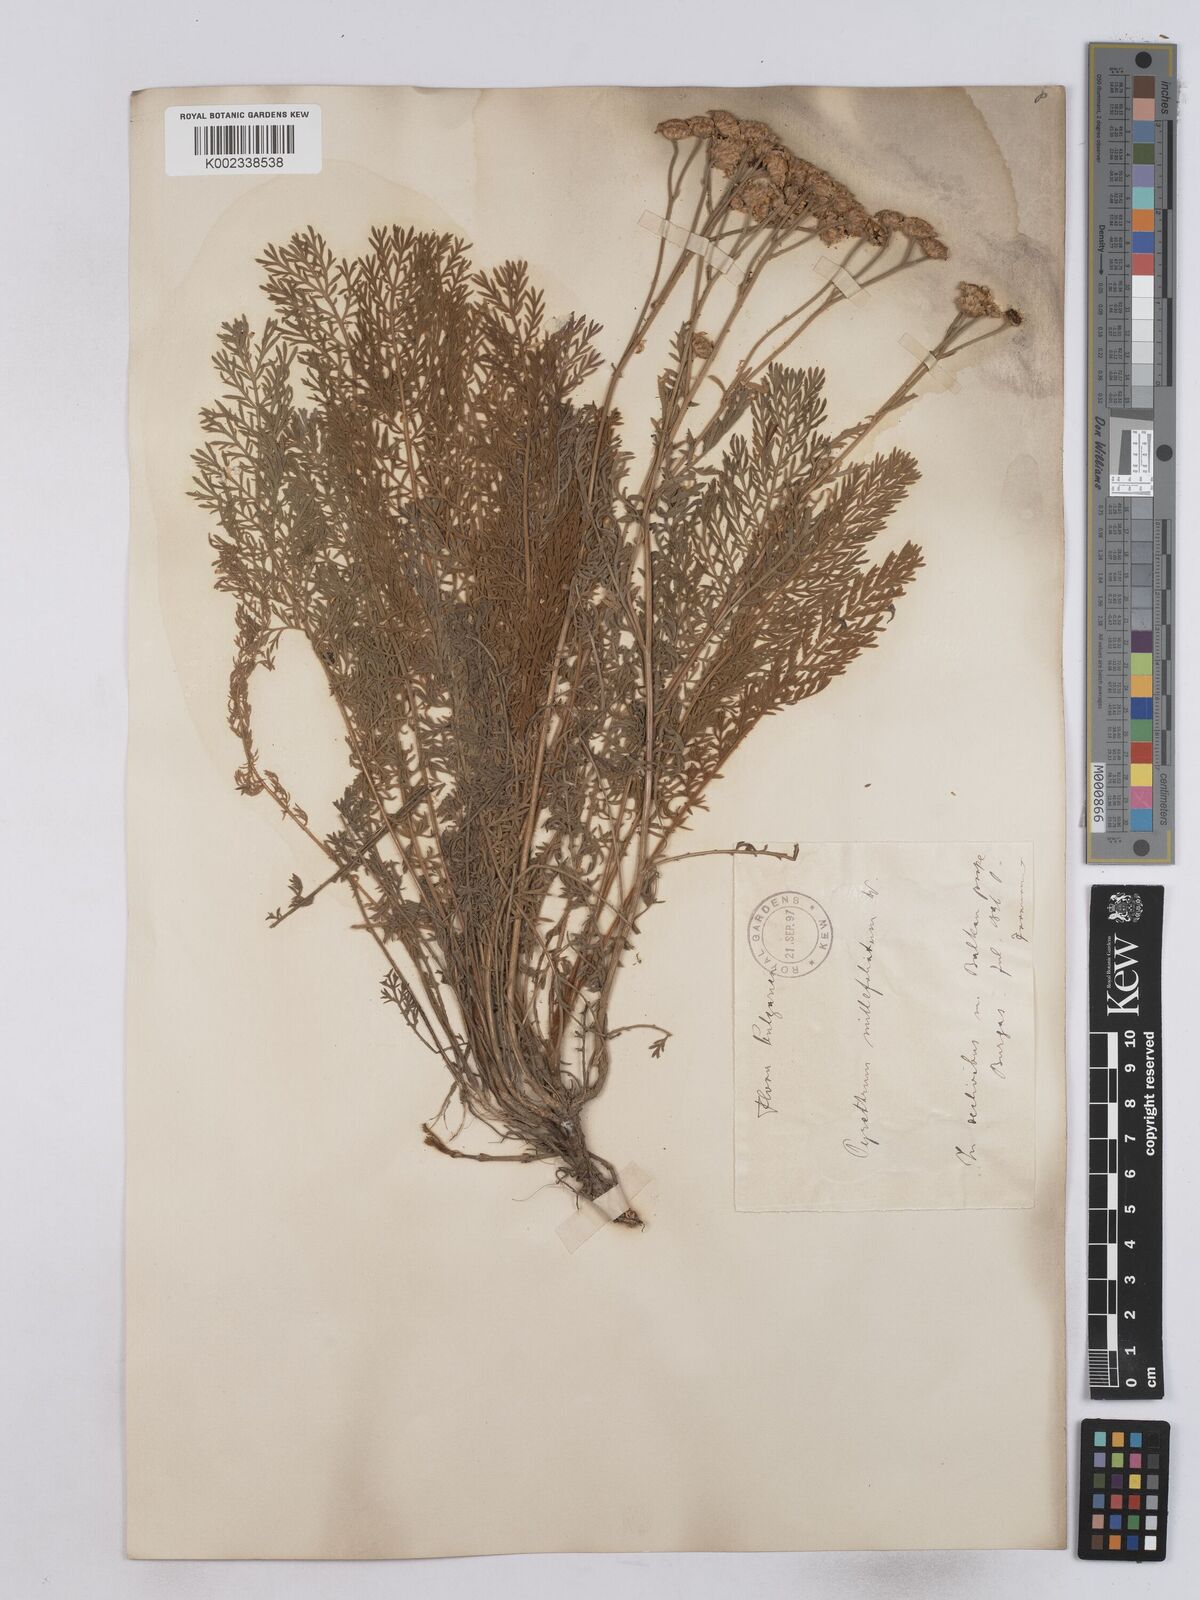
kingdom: Plantae
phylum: Tracheophyta
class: Magnoliopsida
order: Asterales
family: Asteraceae
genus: Tanacetum
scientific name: Tanacetum millefolium
